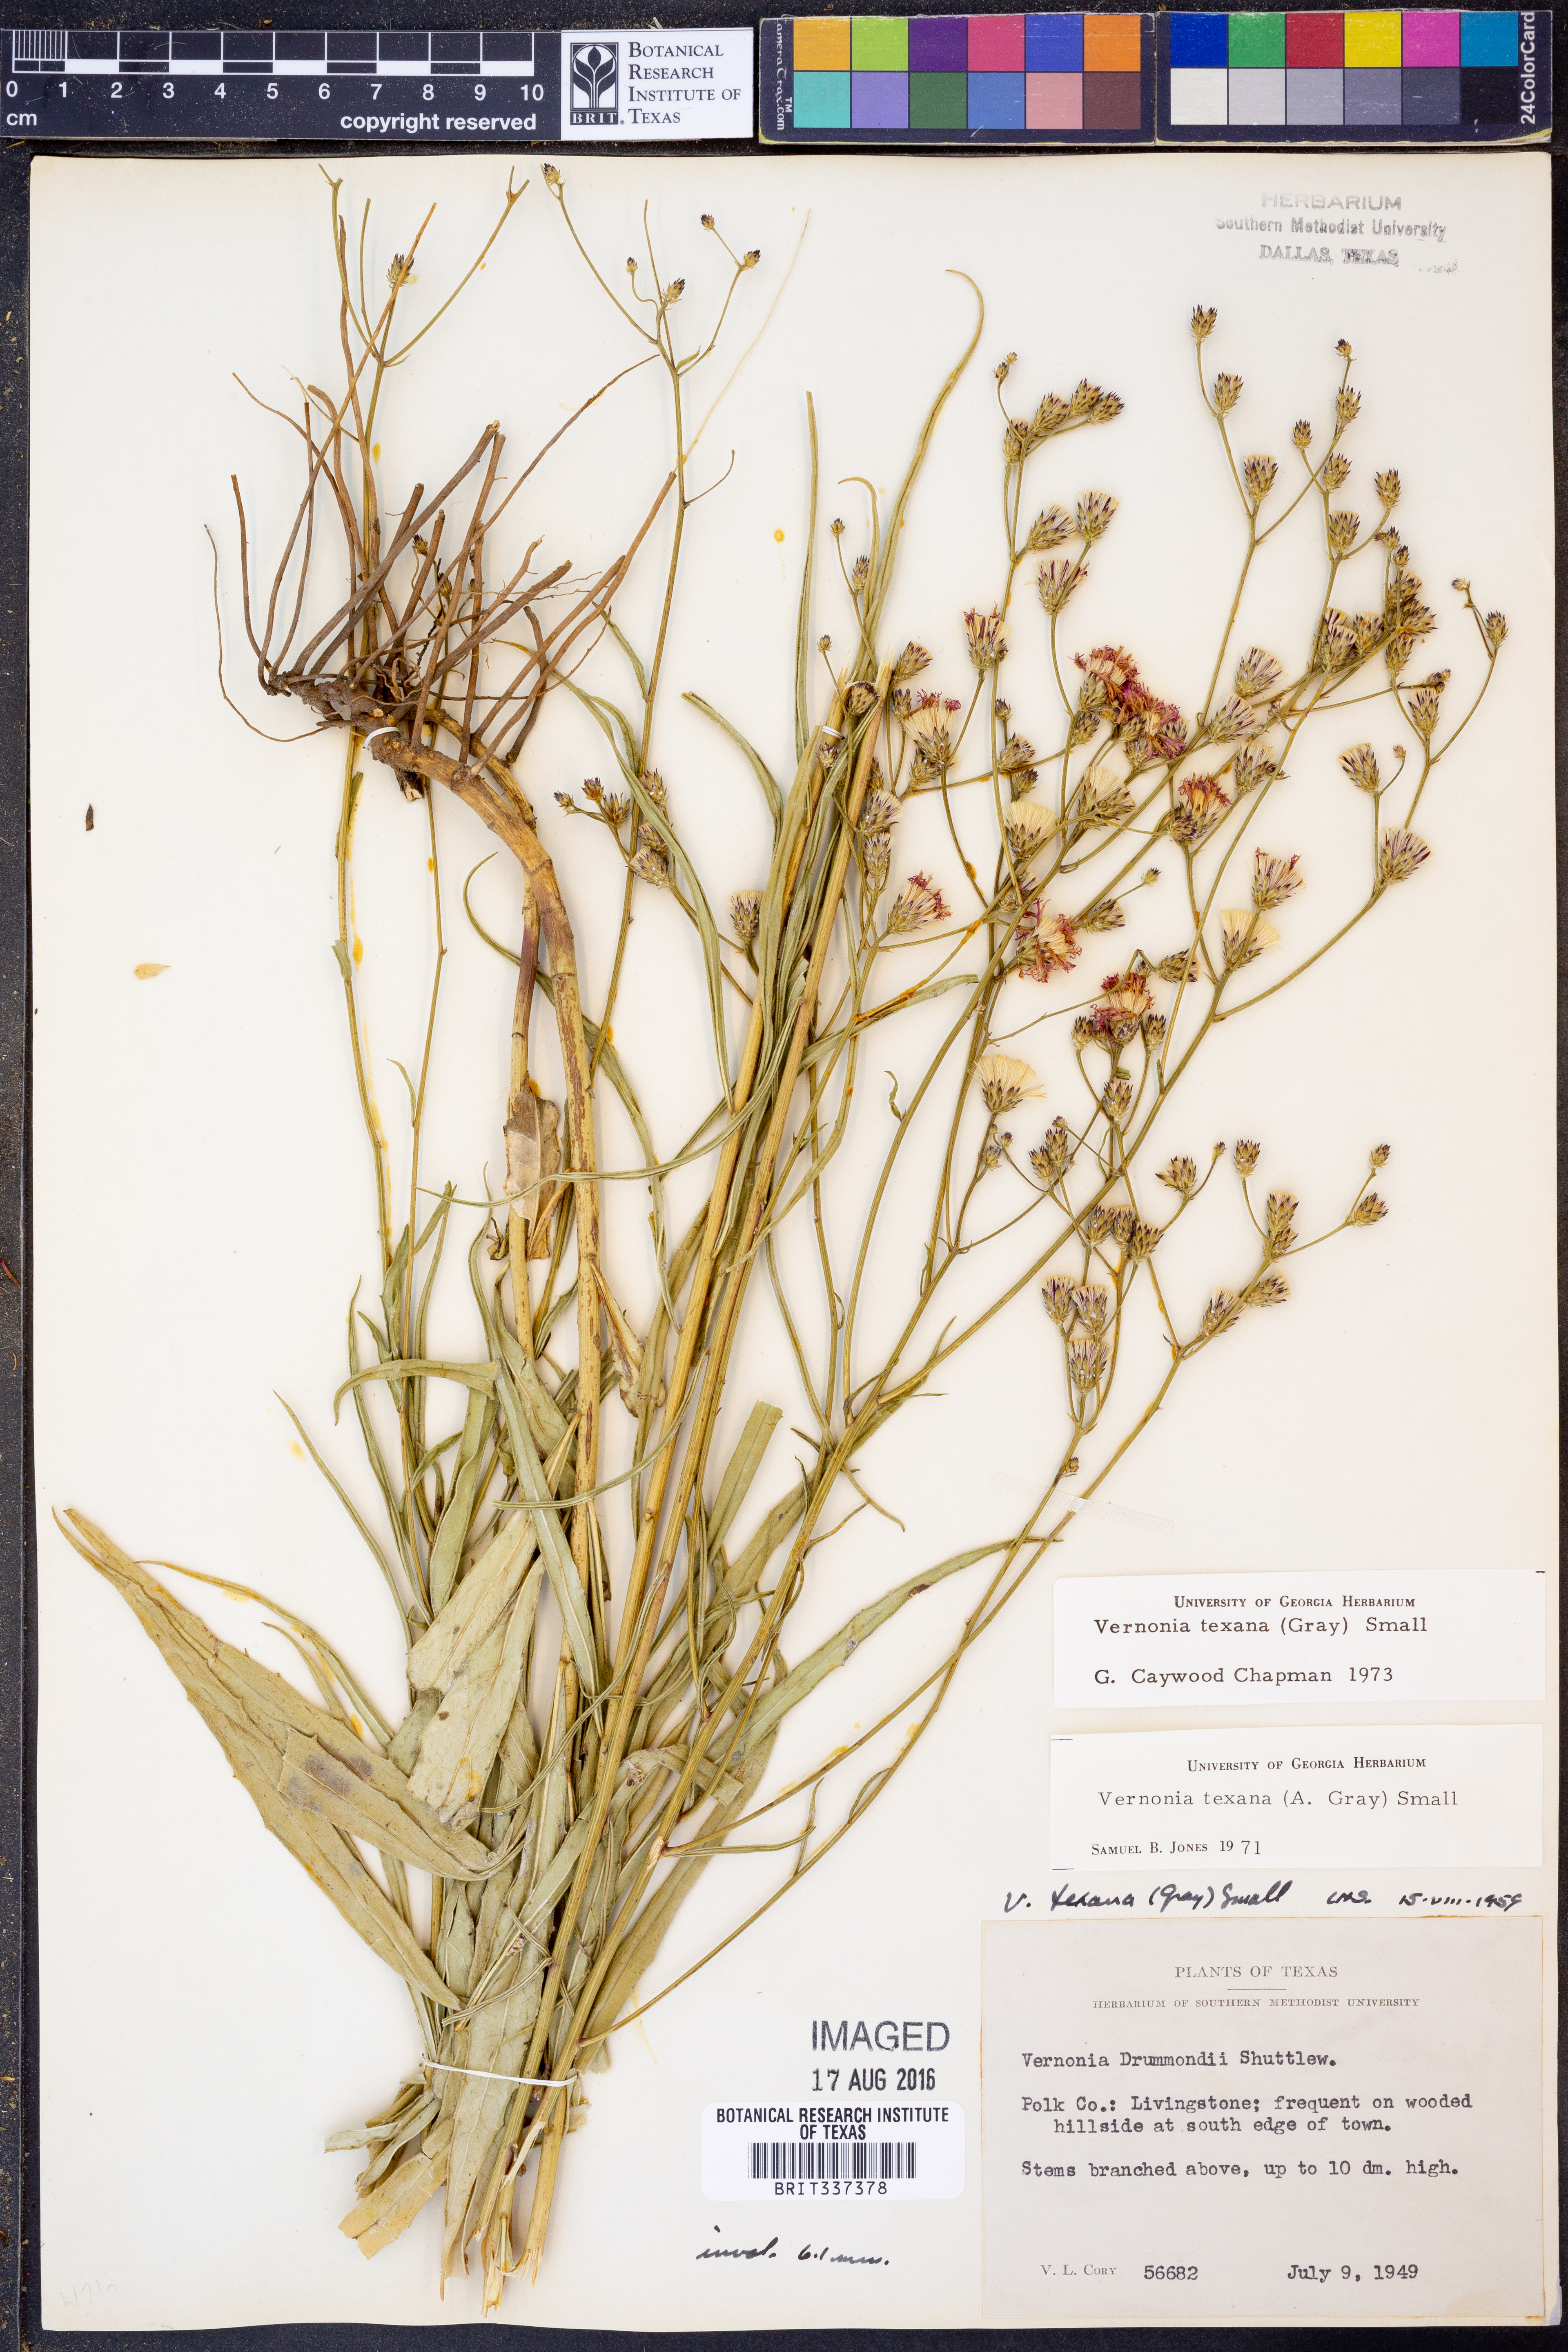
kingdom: Plantae
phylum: Tracheophyta
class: Magnoliopsida
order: Asterales
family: Asteraceae
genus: Vernonia
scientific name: Vernonia texana
